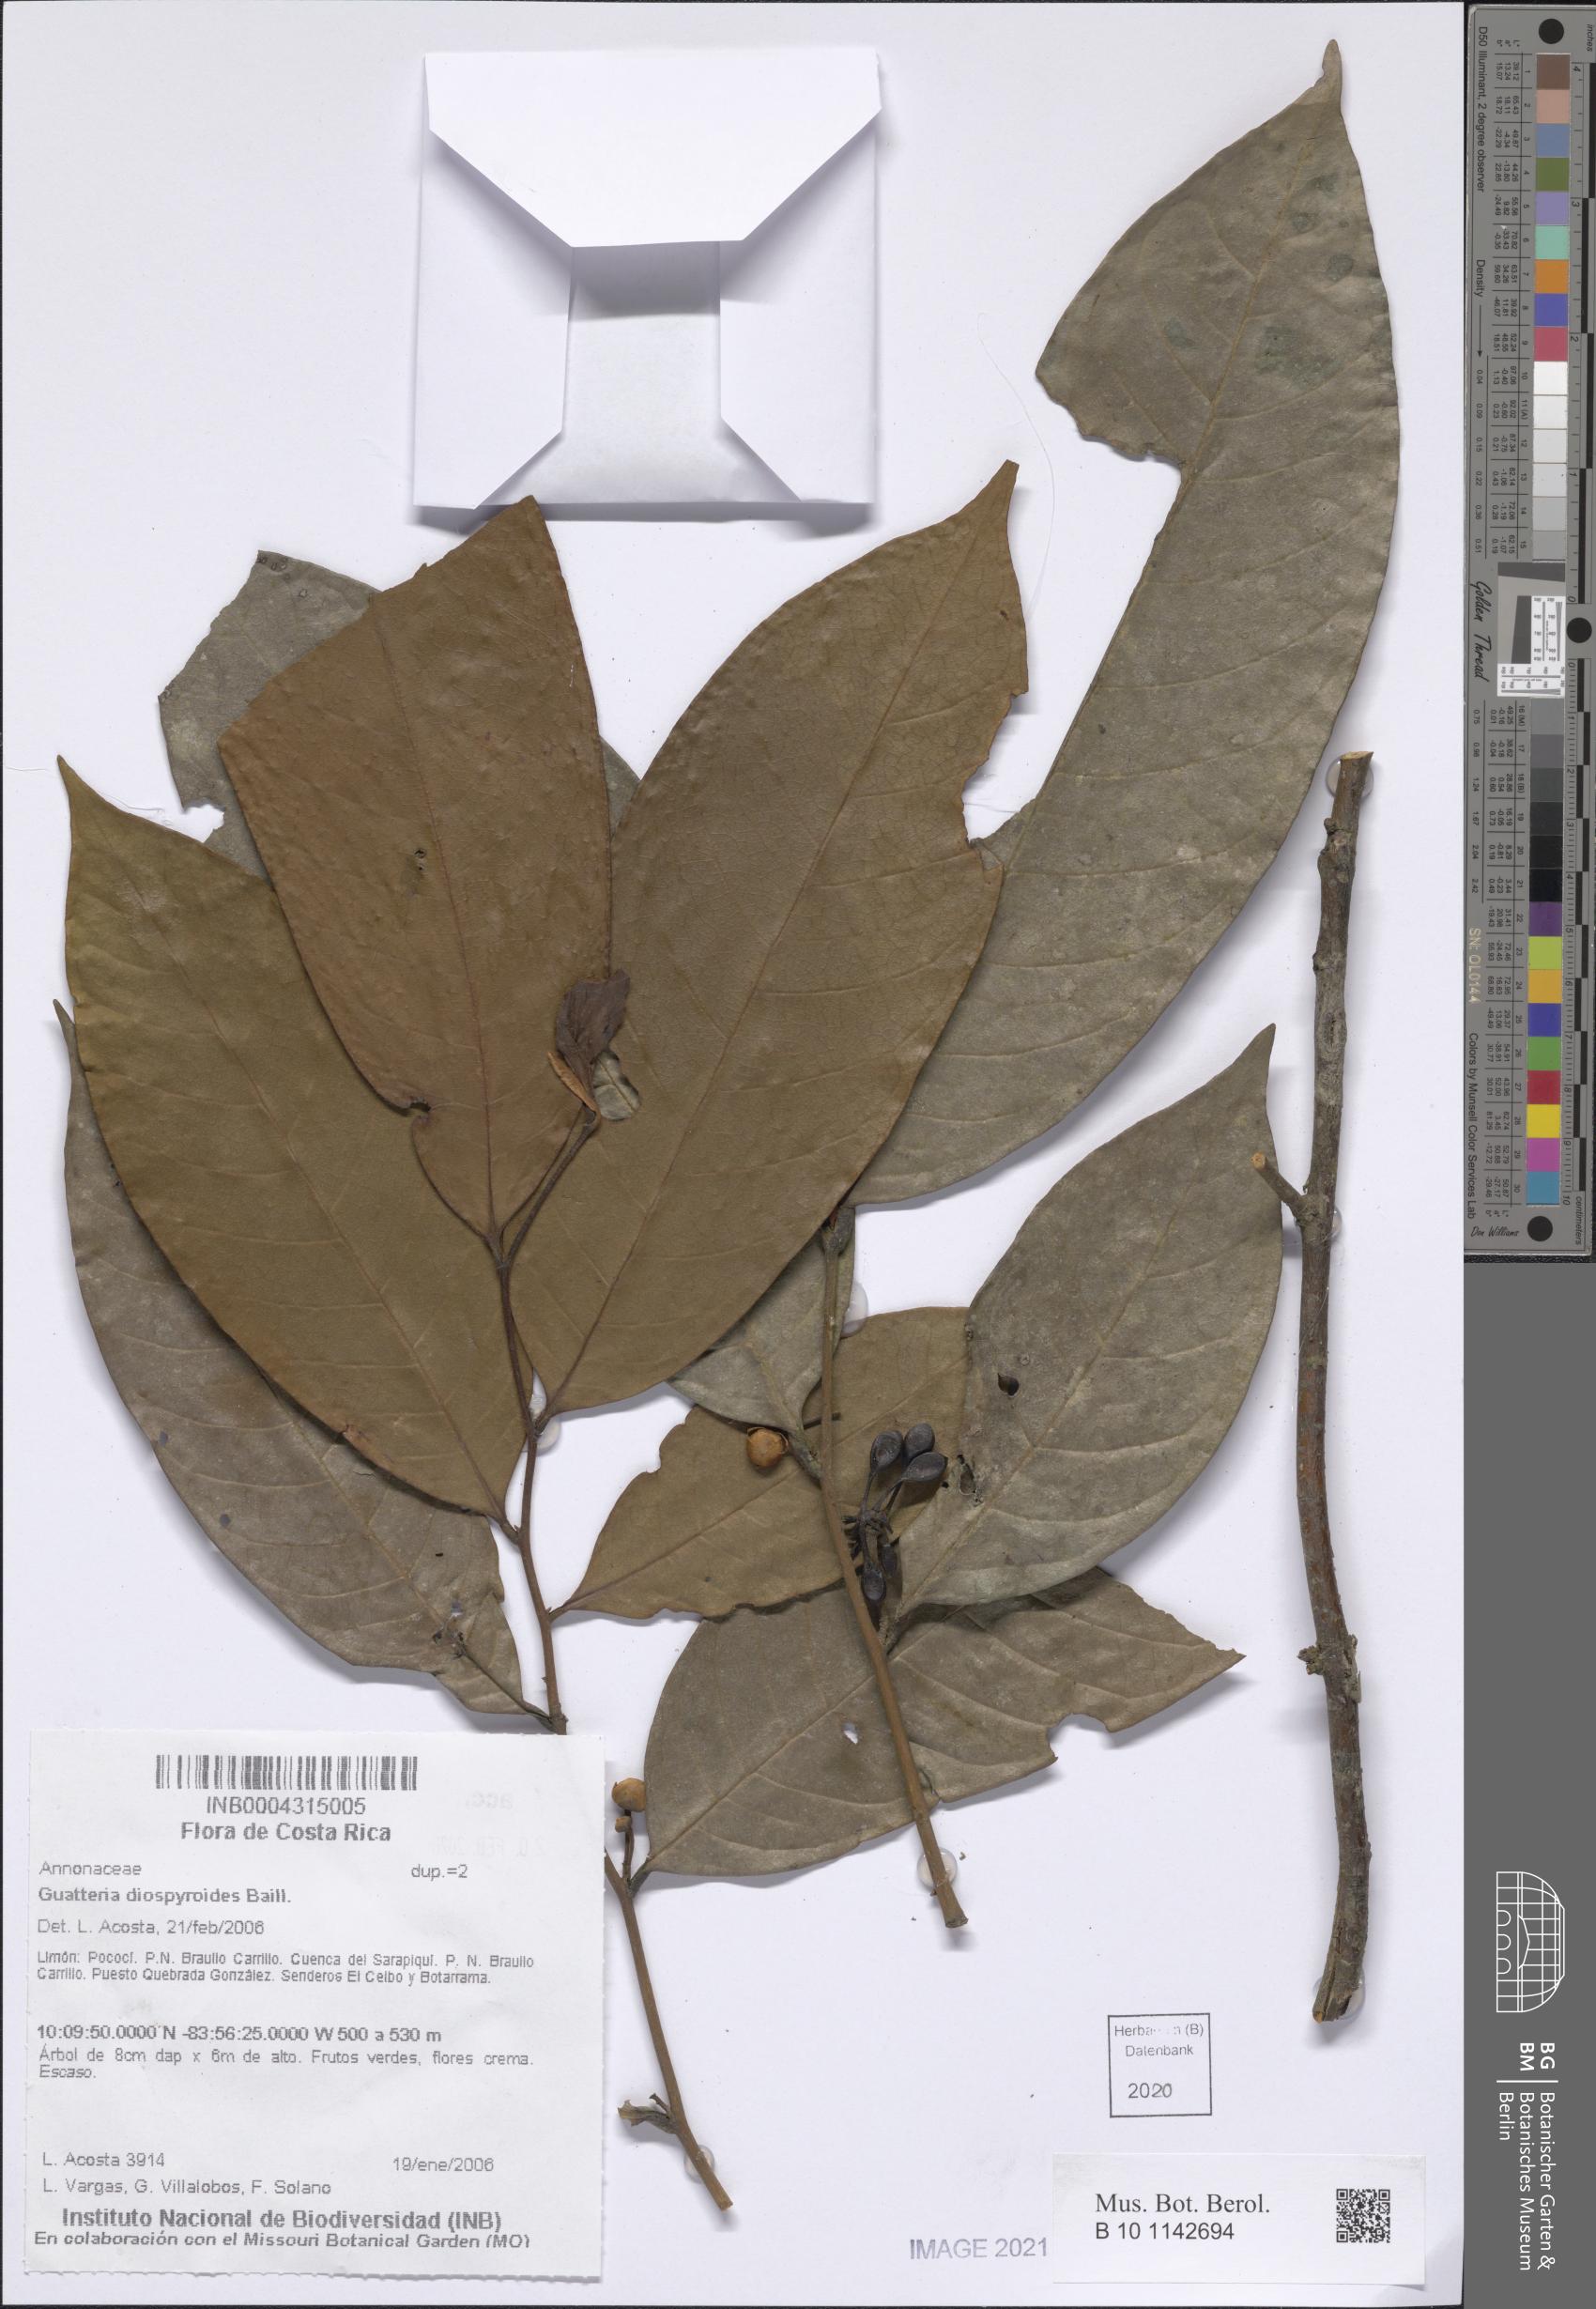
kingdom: Plantae
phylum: Tracheophyta
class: Magnoliopsida
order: Magnoliales
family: Annonaceae
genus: Guatteria
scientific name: Guatteria diospyroides
